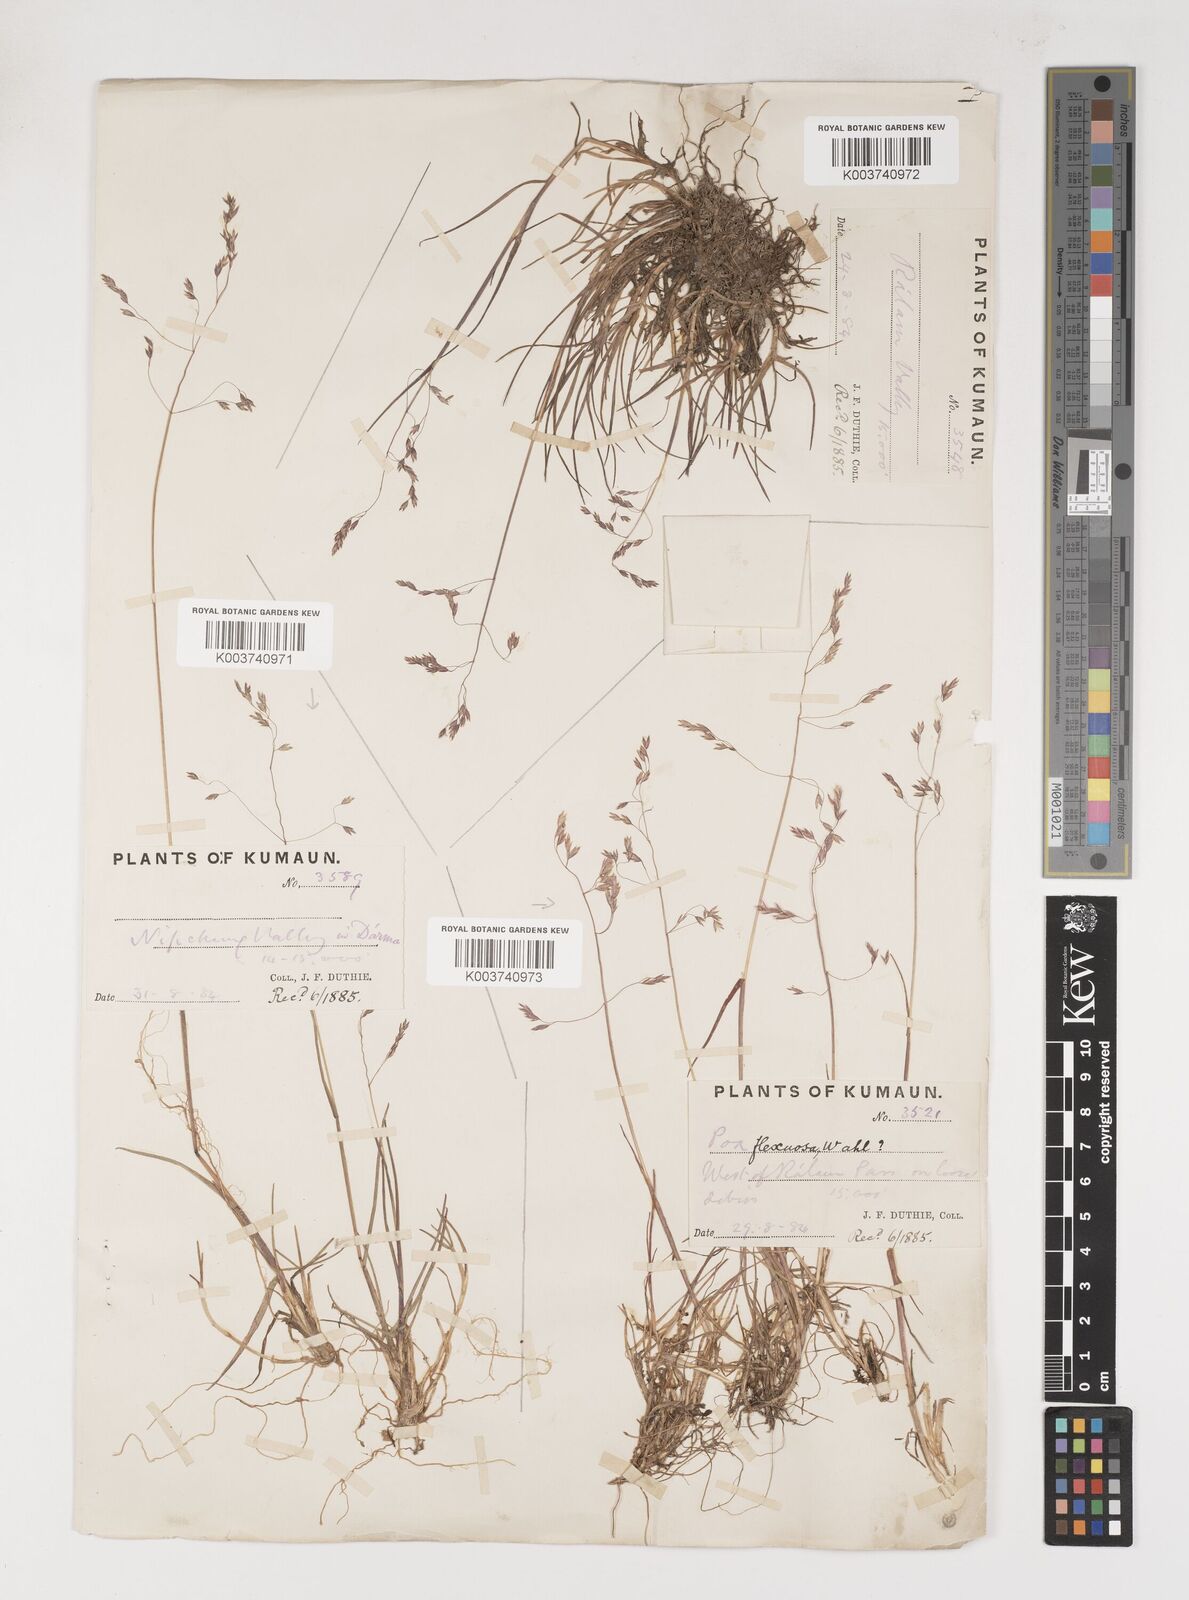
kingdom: Plantae
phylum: Tracheophyta
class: Liliopsida
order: Poales
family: Poaceae
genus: Poa
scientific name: Poa pagophila
